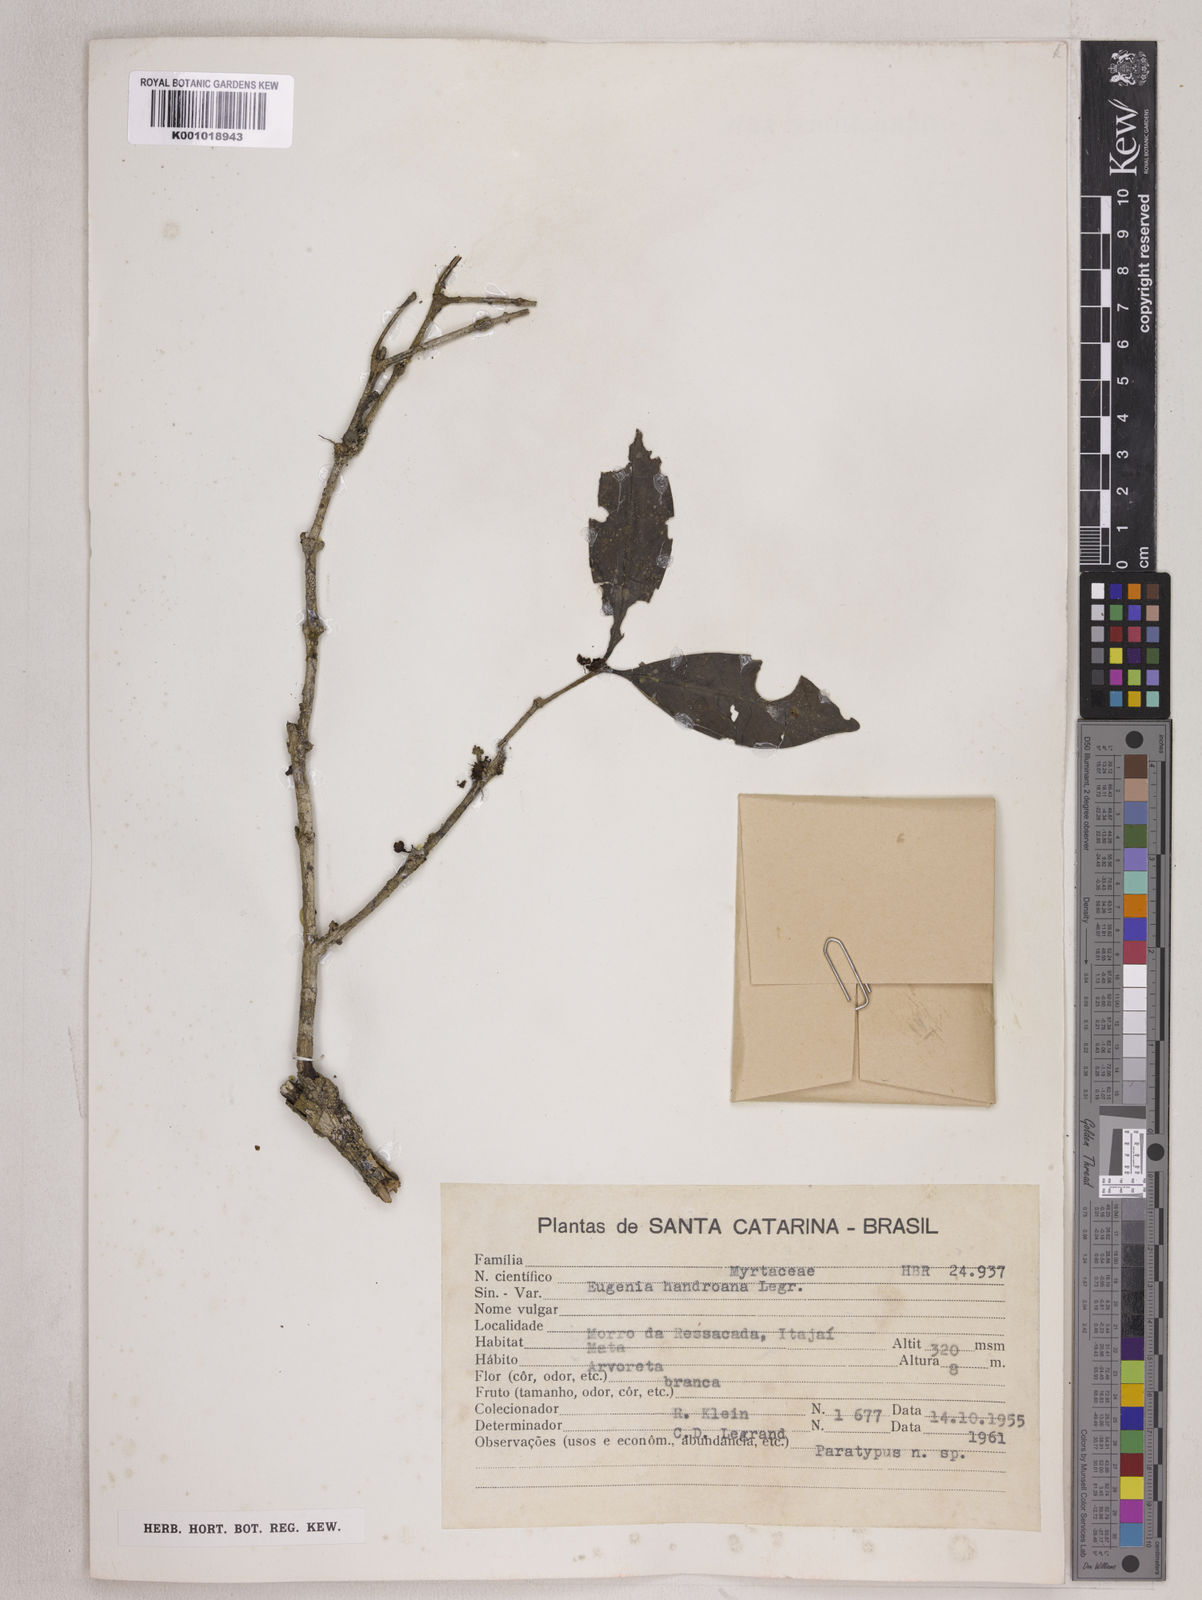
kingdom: Plantae
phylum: Tracheophyta
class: Magnoliopsida
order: Myrtales
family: Myrtaceae
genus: Eugenia
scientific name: Eugenia handroana
